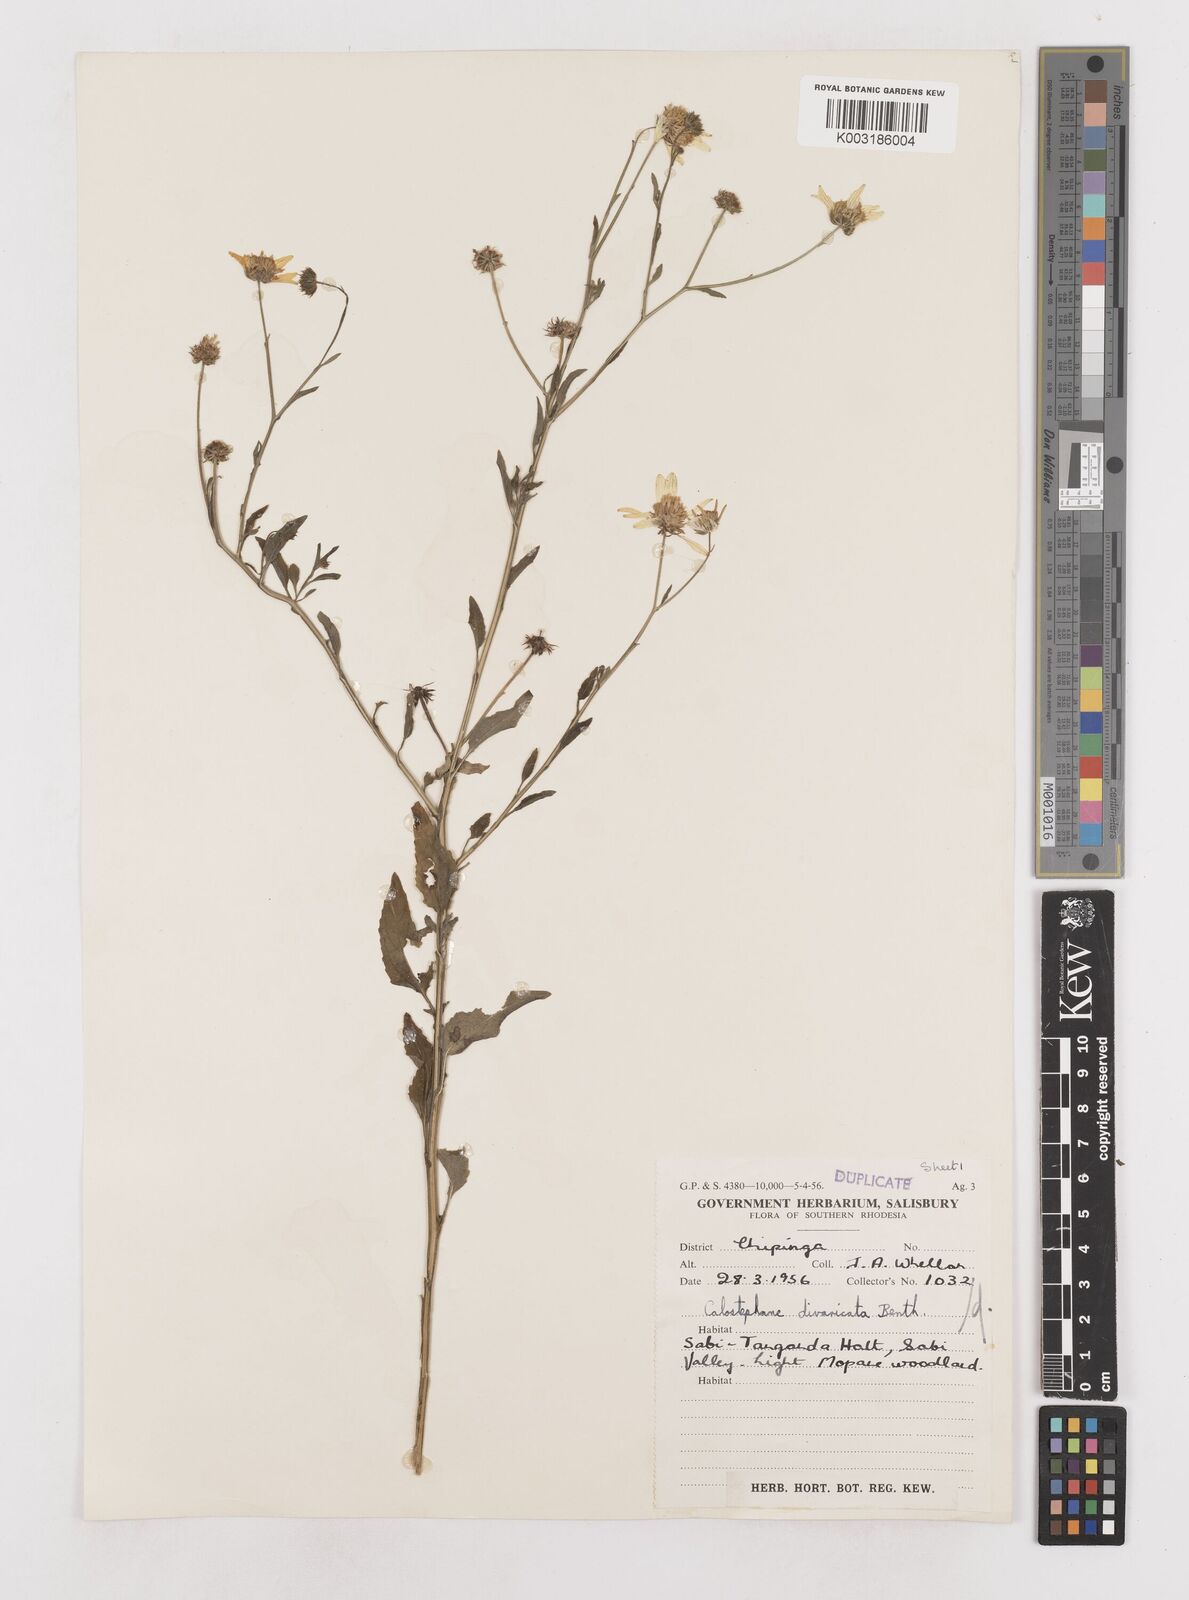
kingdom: Plantae
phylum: Tracheophyta
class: Magnoliopsida
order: Asterales
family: Asteraceae
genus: Calostephane
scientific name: Calostephane divaricata
